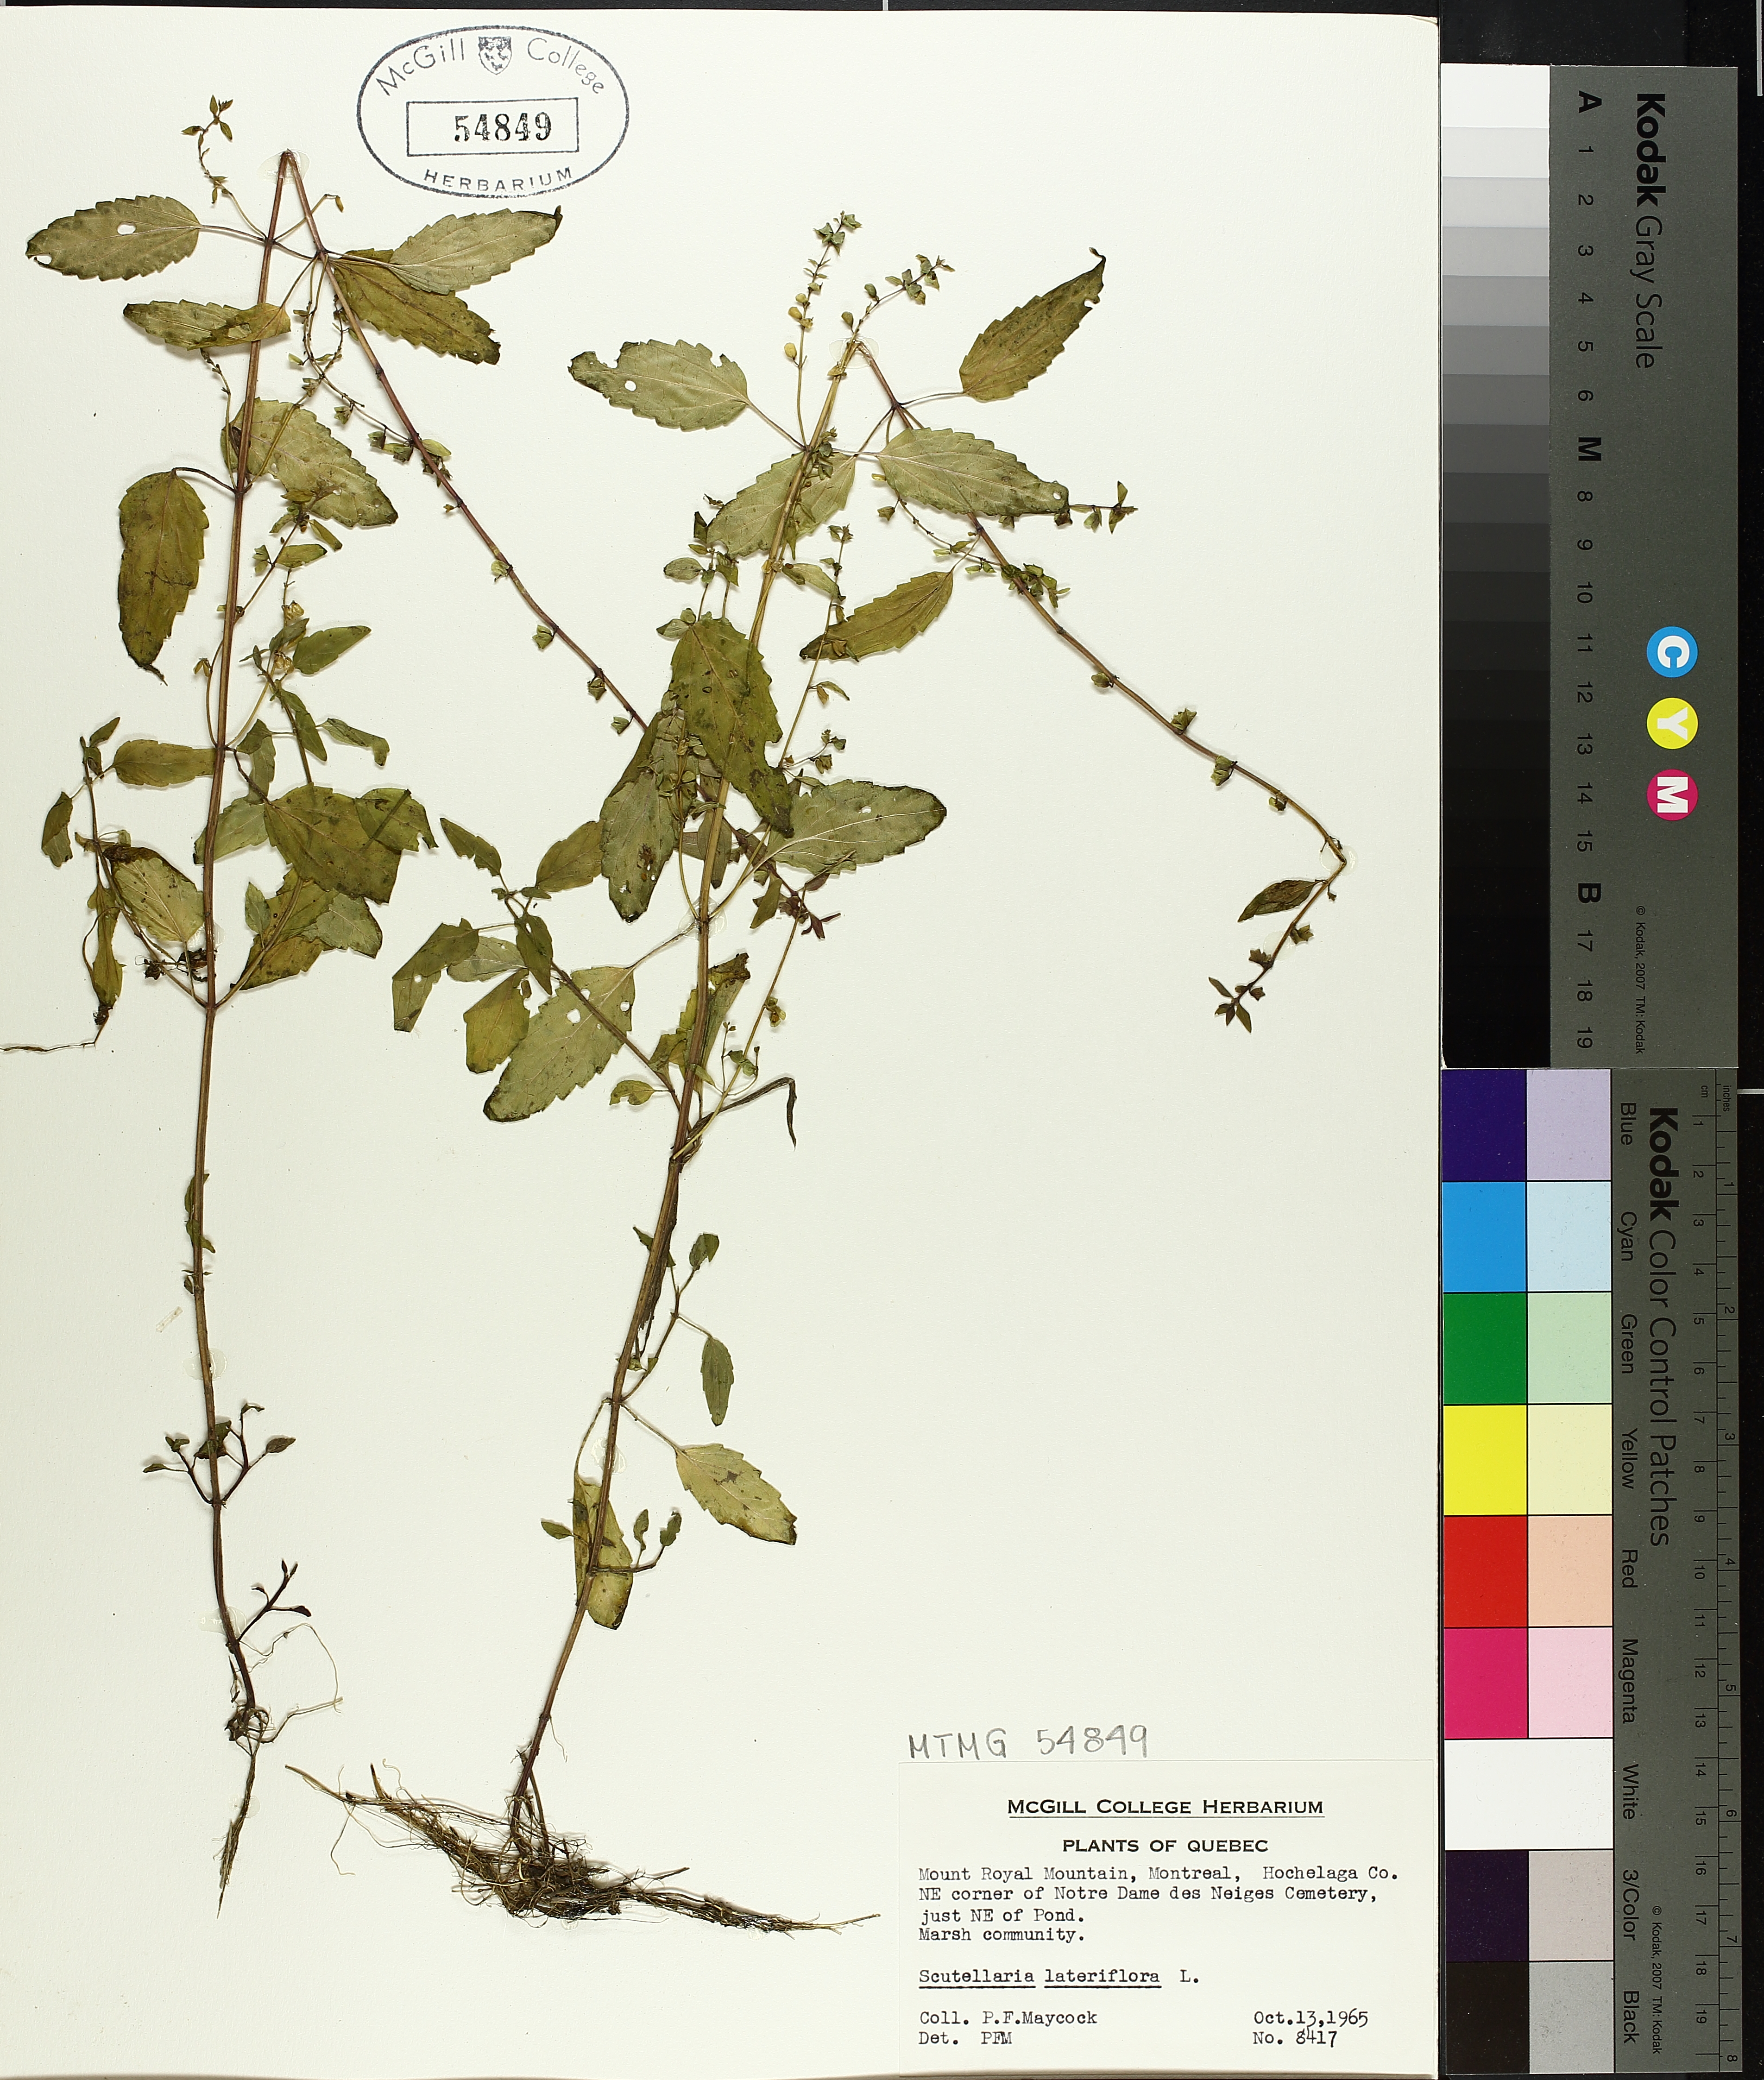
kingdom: Plantae
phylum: Tracheophyta
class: Magnoliopsida
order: Lamiales
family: Lamiaceae
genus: Scutellaria
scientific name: Scutellaria lateriflora
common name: Blue skullcap
